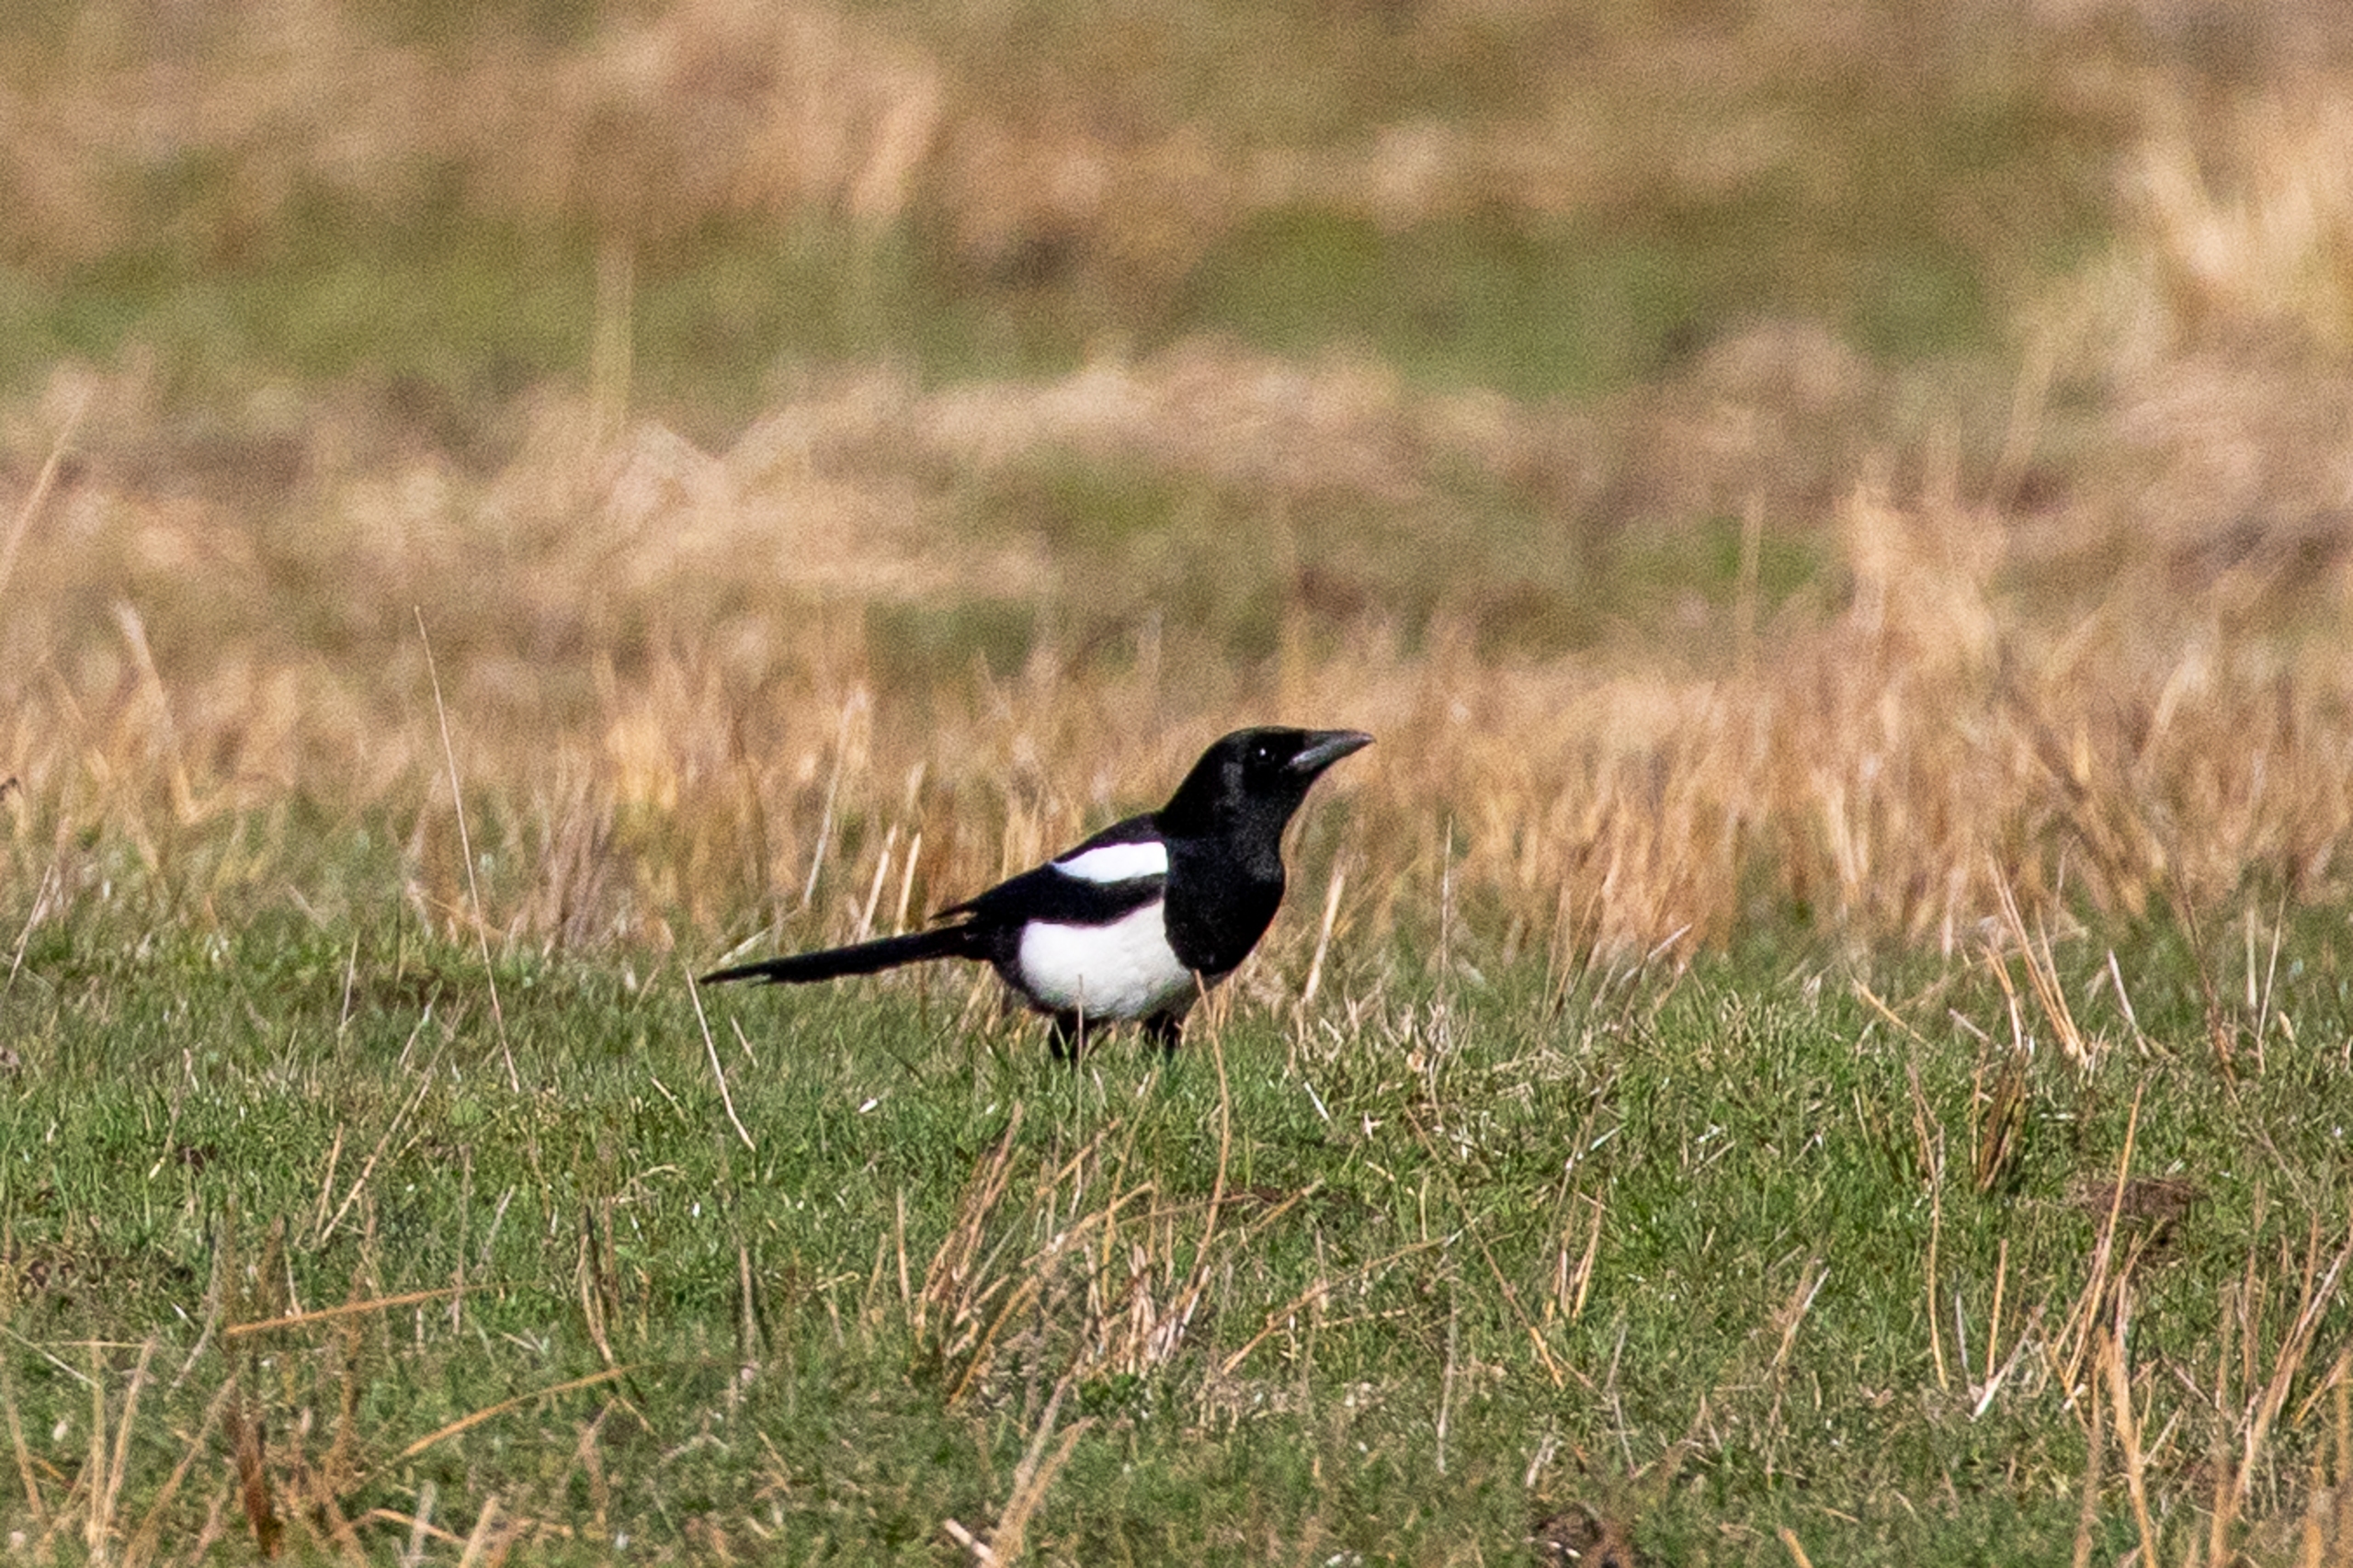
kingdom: Animalia
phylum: Chordata
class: Aves
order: Passeriformes
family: Corvidae
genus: Pica
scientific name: Pica pica
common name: Husskade
